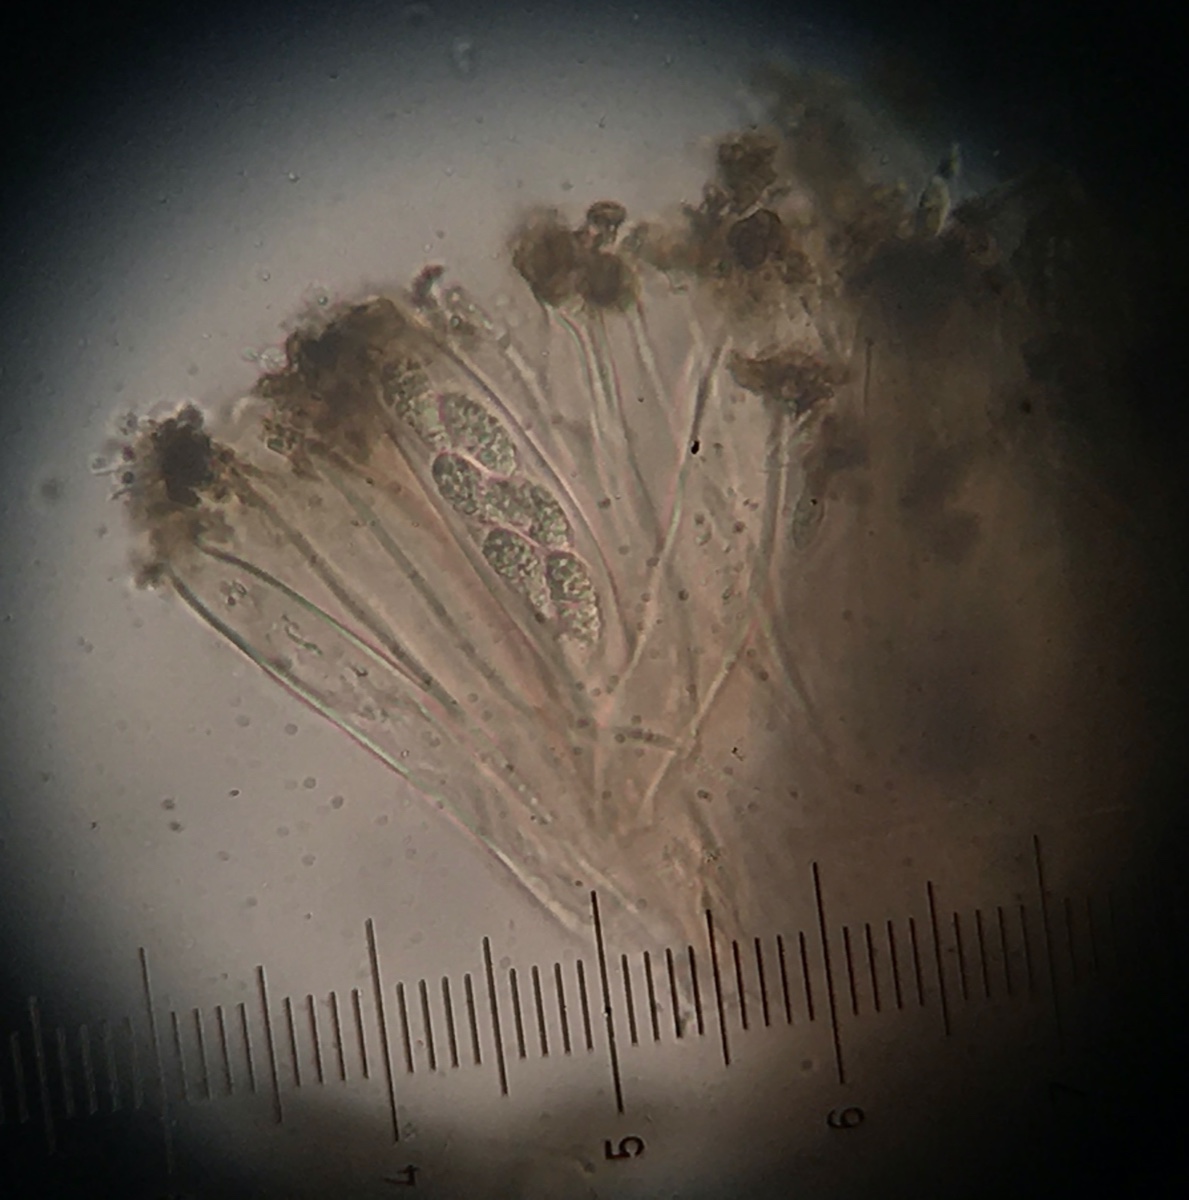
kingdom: Fungi
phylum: Ascomycota
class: Leotiomycetes
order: Helotiales
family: Gelatinodiscaceae
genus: Chloroscypha
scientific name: Chloroscypha seaveri
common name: kortstilket cypresskive
